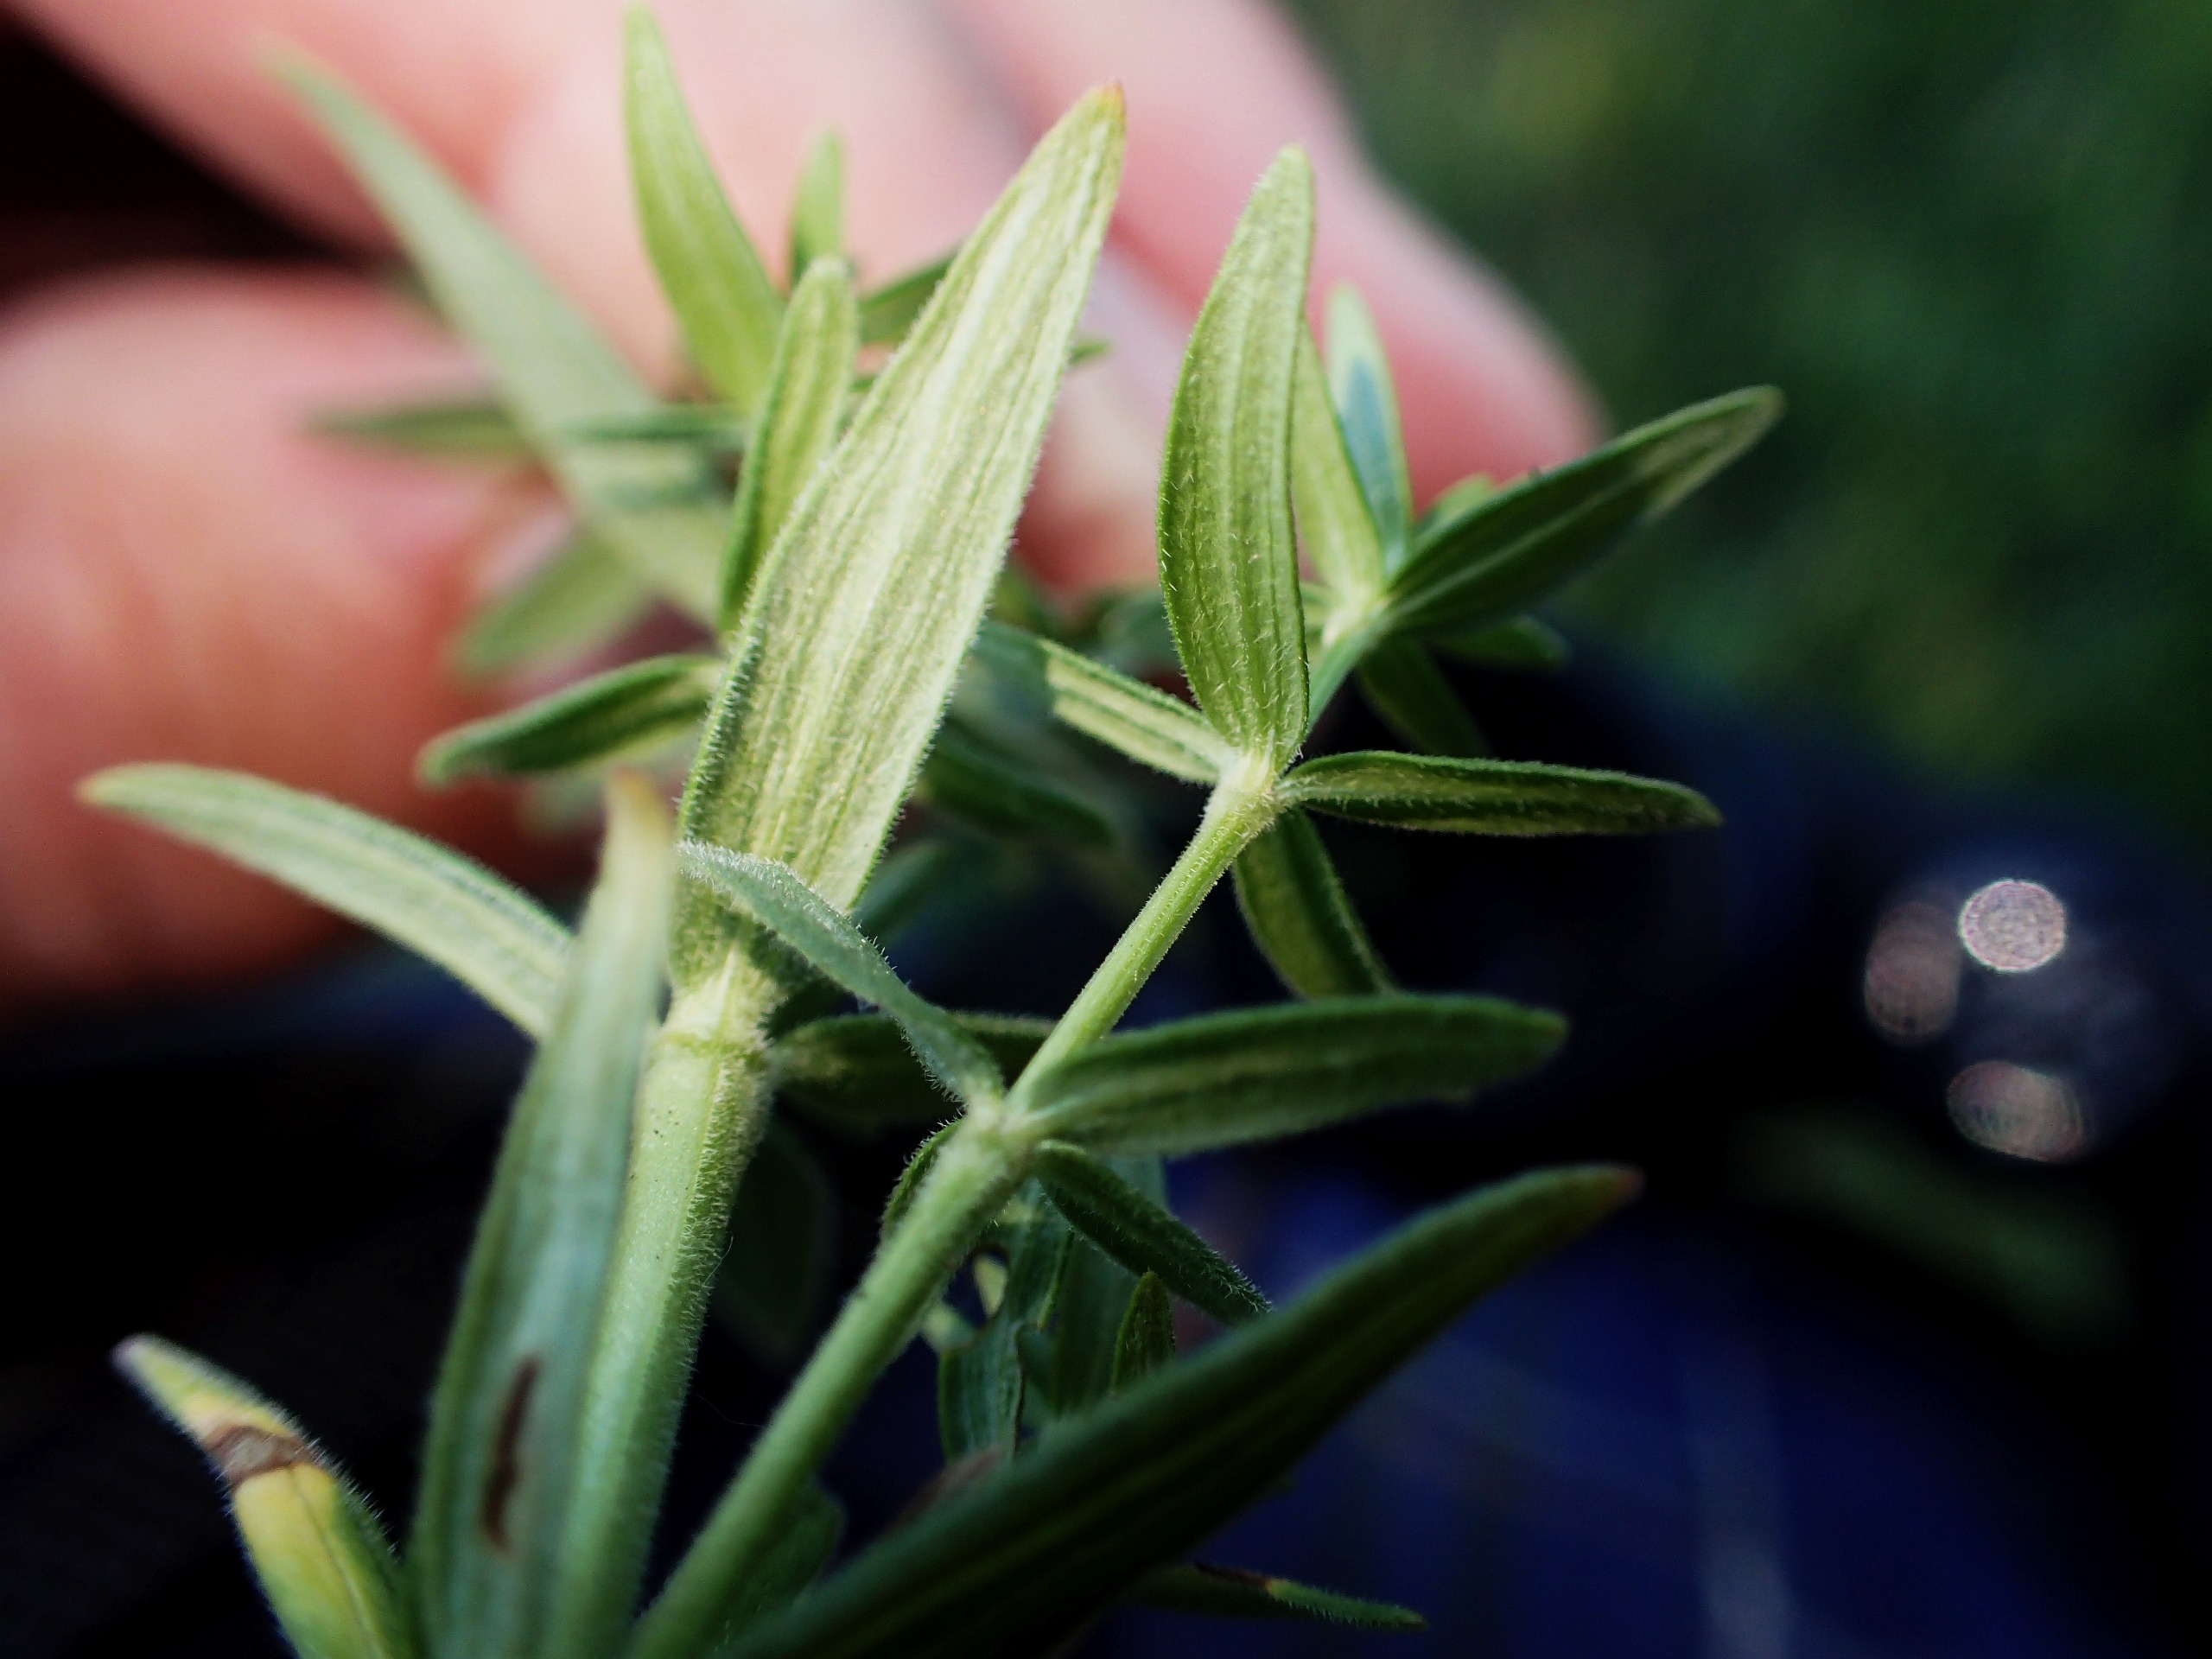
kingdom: Plantae
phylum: Tracheophyta
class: Magnoliopsida
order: Gentianales
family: Rubiaceae
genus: Galium
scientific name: Galium boreale
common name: Trenervet snerre
